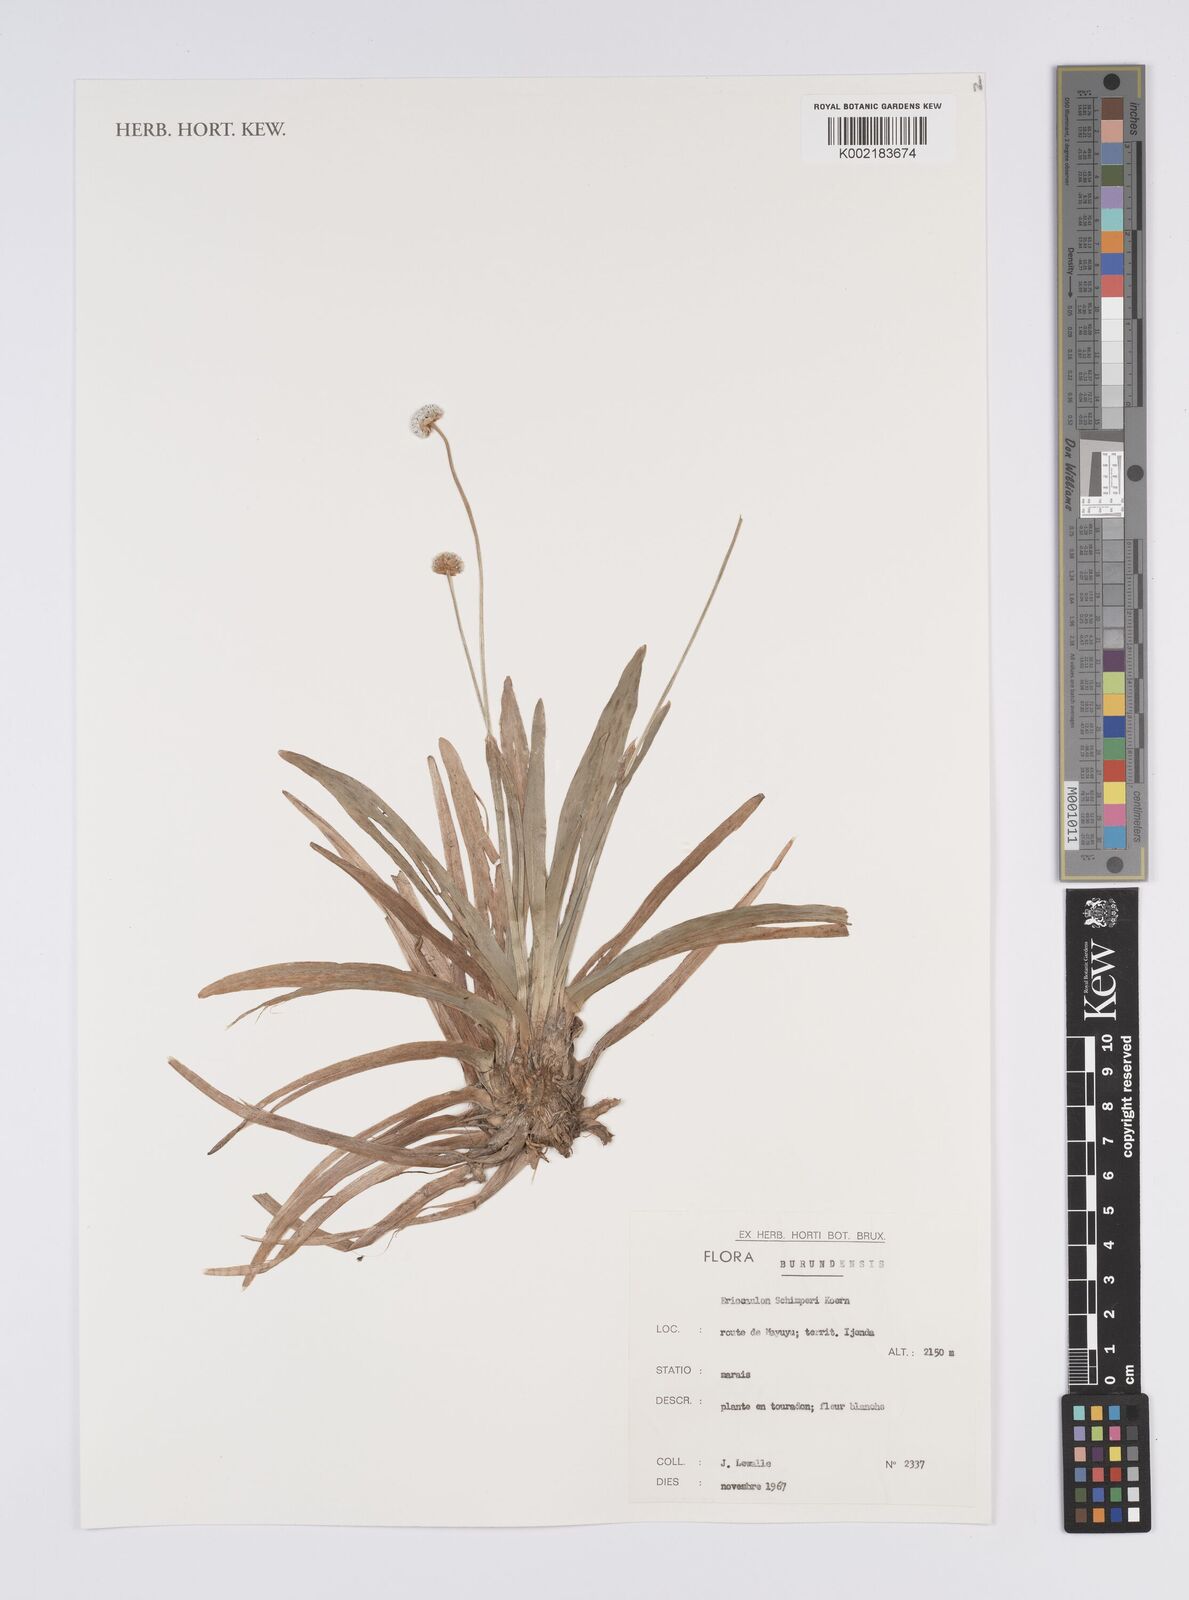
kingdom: Plantae
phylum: Tracheophyta
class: Liliopsida
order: Poales
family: Eriocaulaceae
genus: Eriocaulon
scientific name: Eriocaulon schimperi
